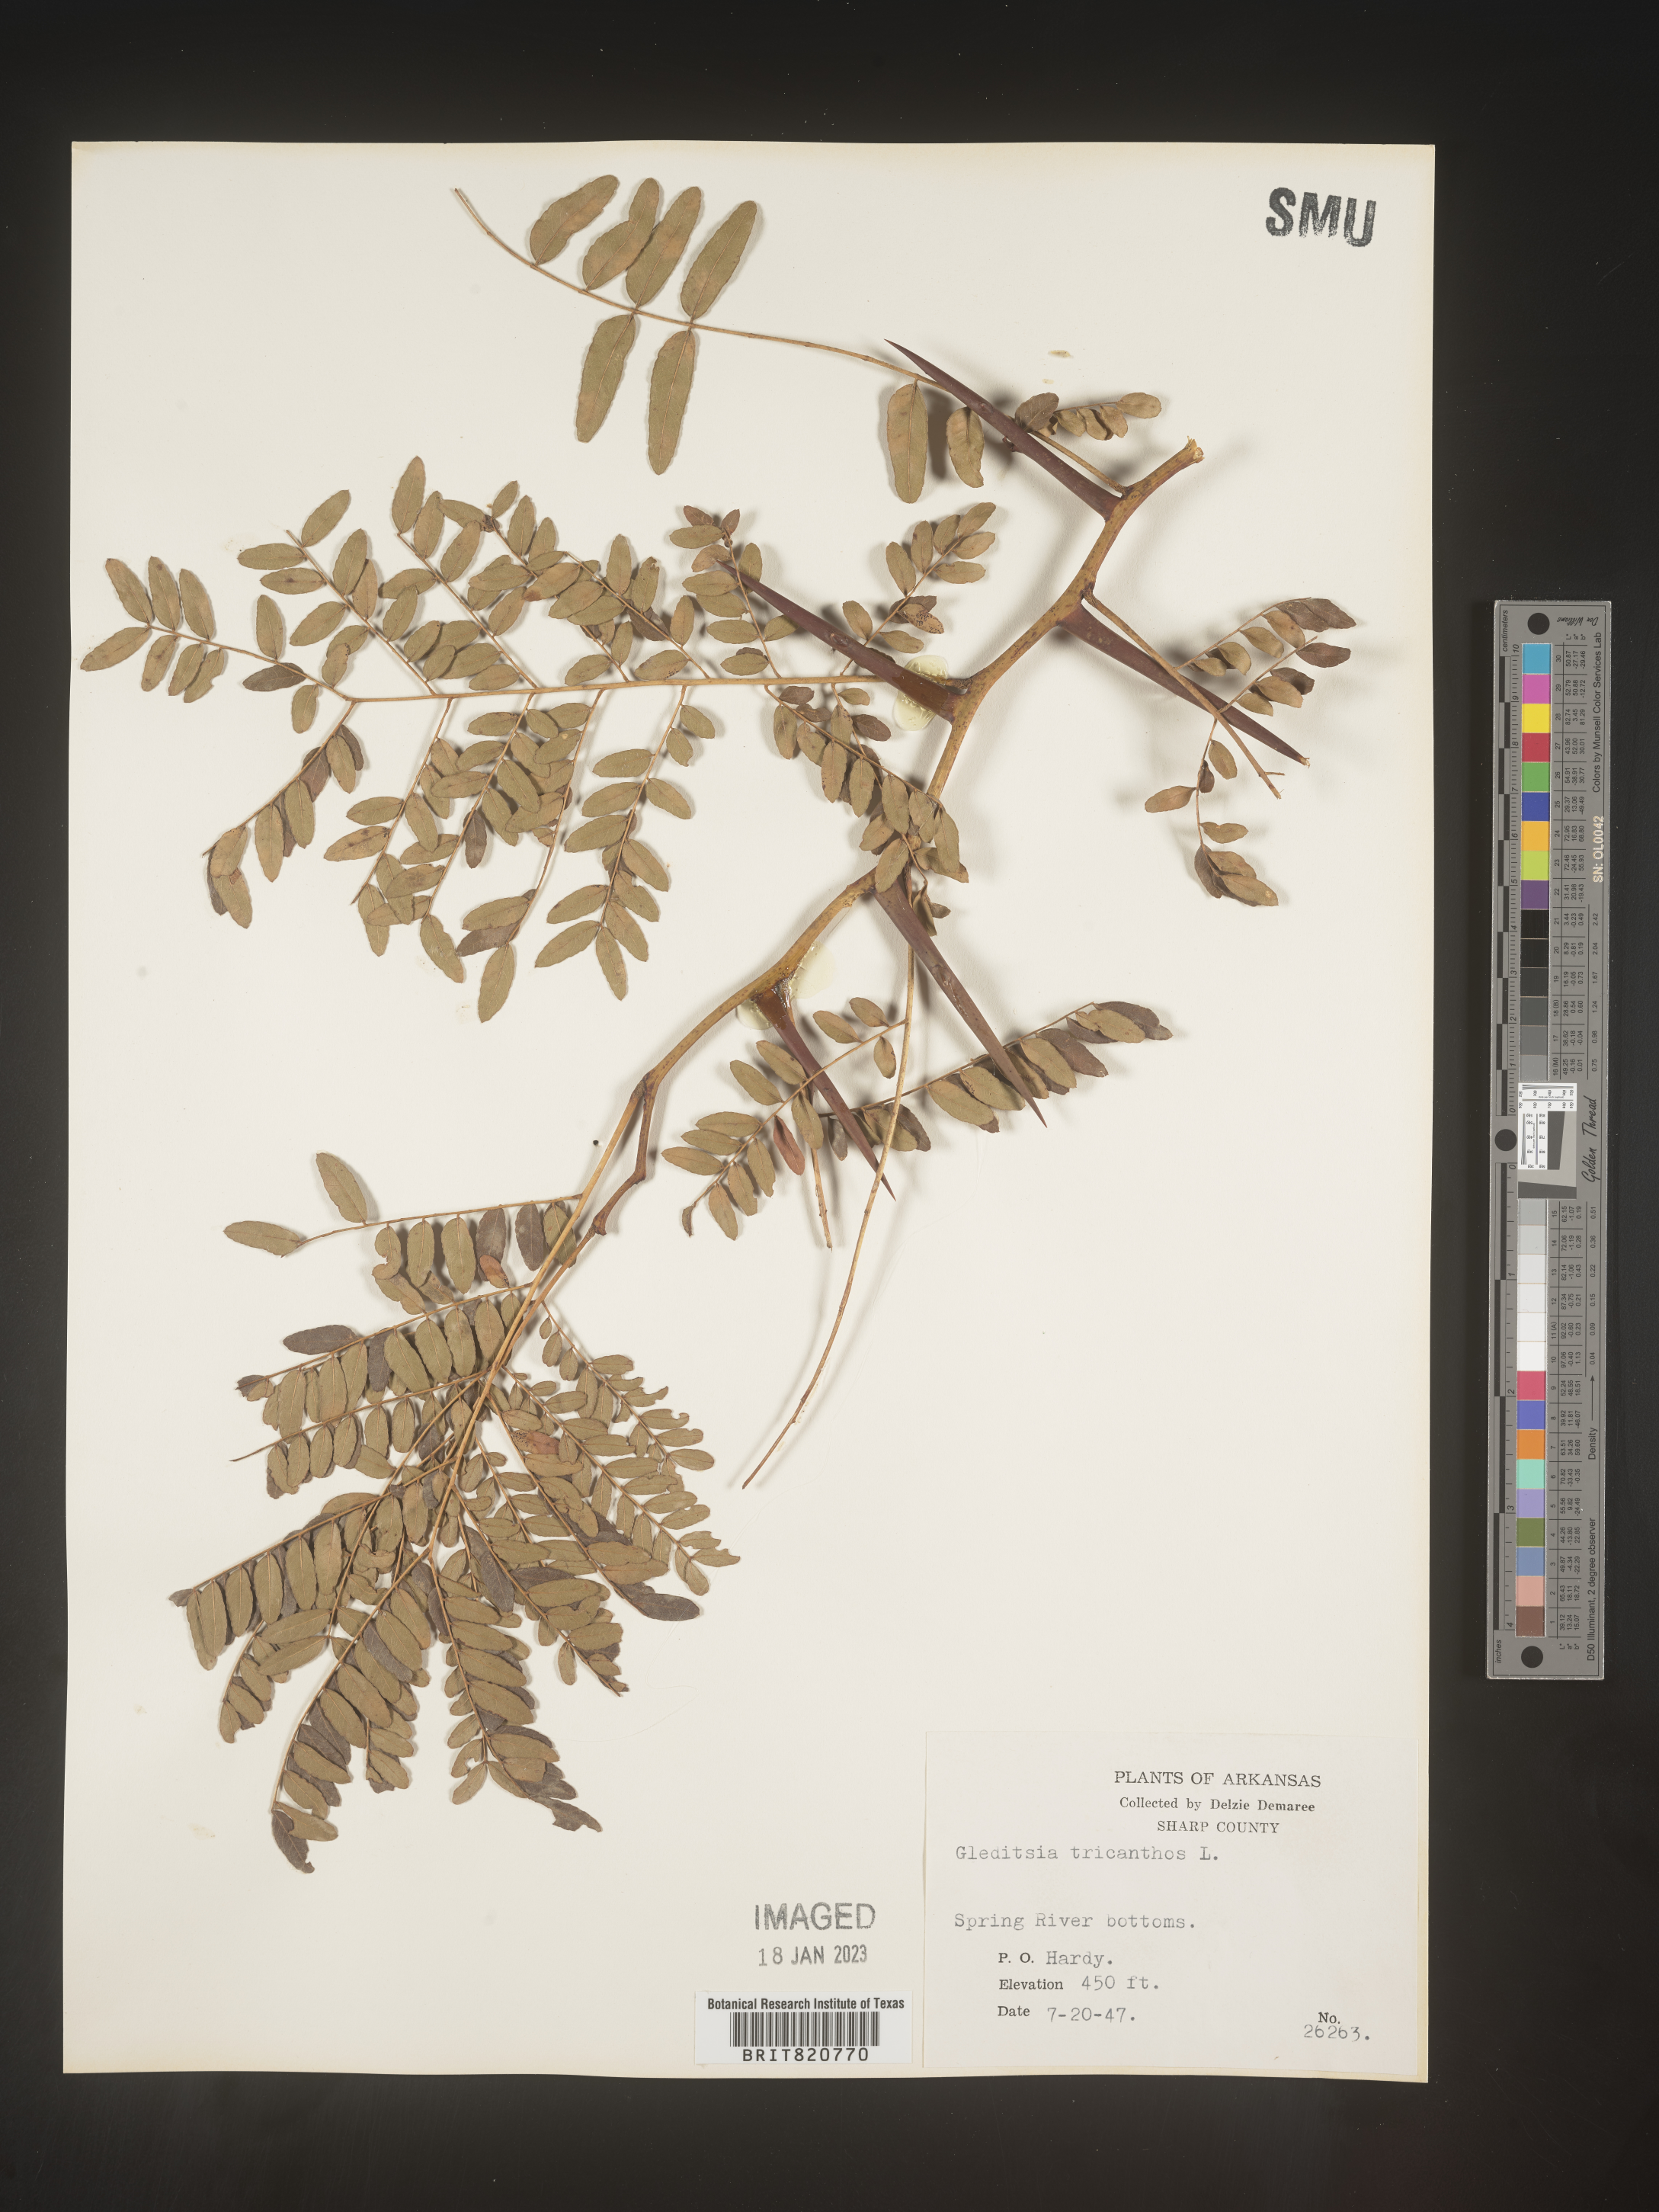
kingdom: Plantae
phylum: Tracheophyta
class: Magnoliopsida
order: Fabales
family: Fabaceae
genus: Gleditsia
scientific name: Gleditsia triacanthos
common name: Common honeylocust
